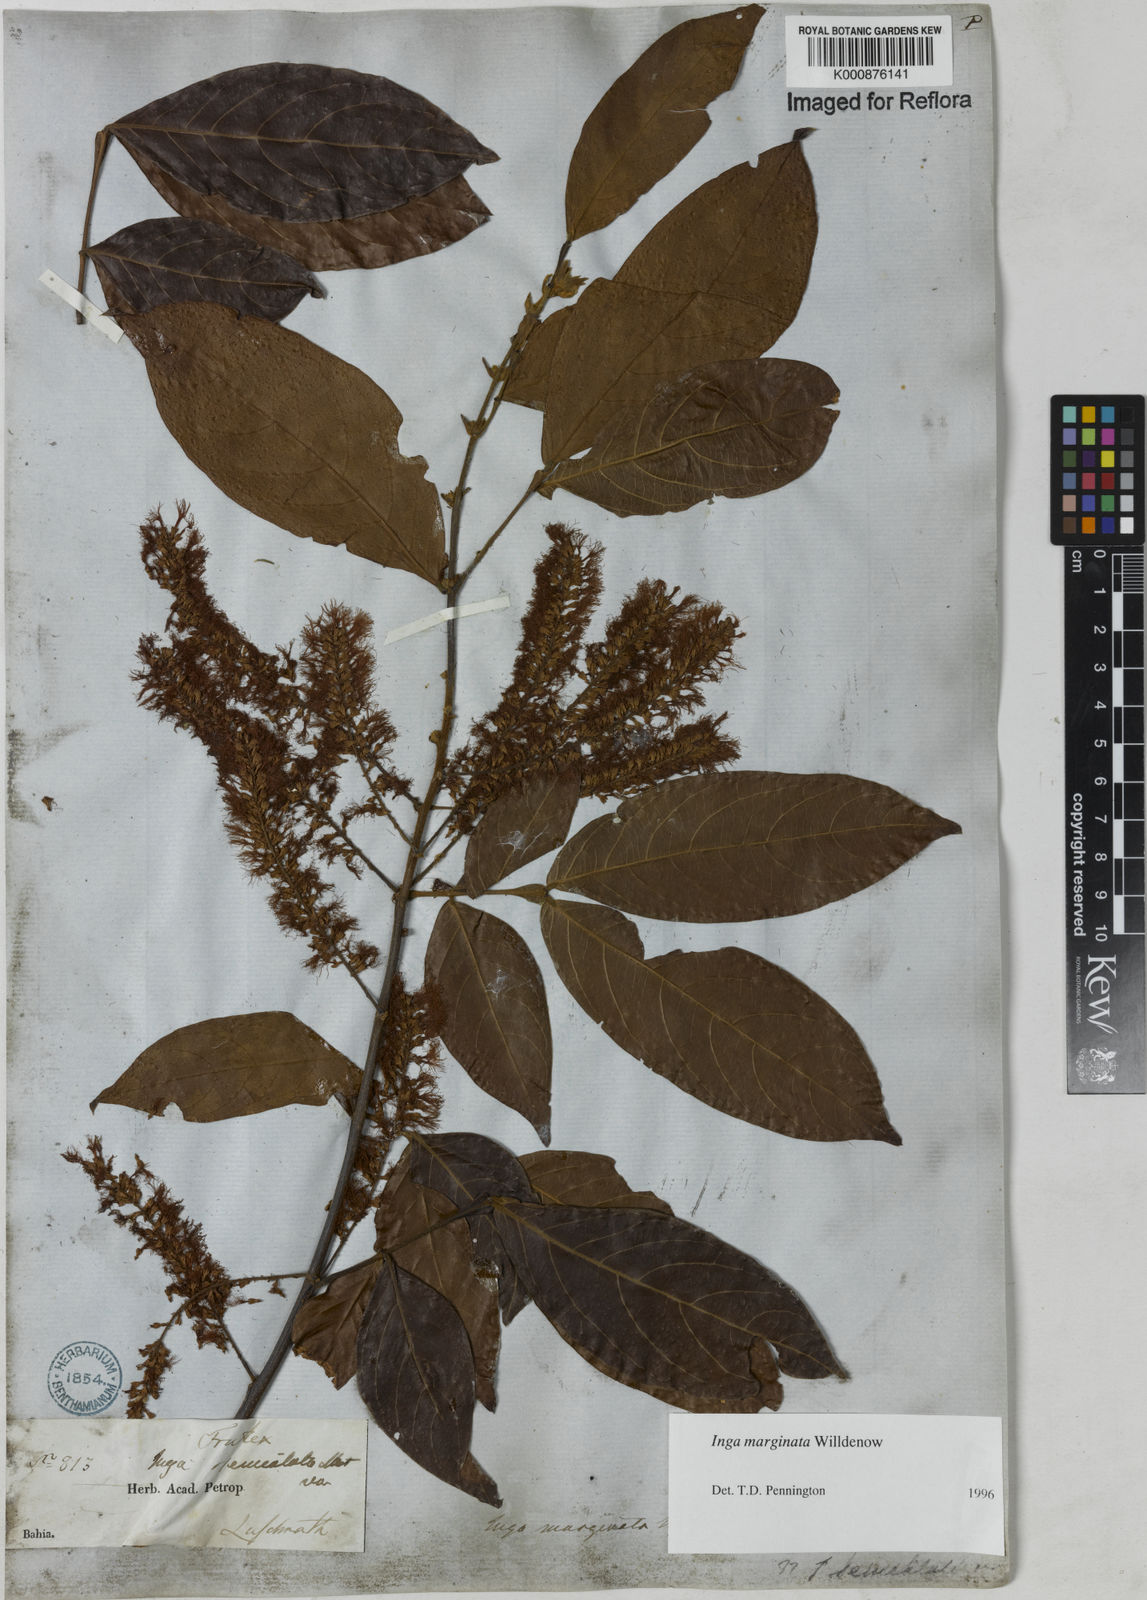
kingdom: Plantae
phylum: Tracheophyta
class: Magnoliopsida
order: Fabales
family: Fabaceae
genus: Inga
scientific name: Inga marginata
